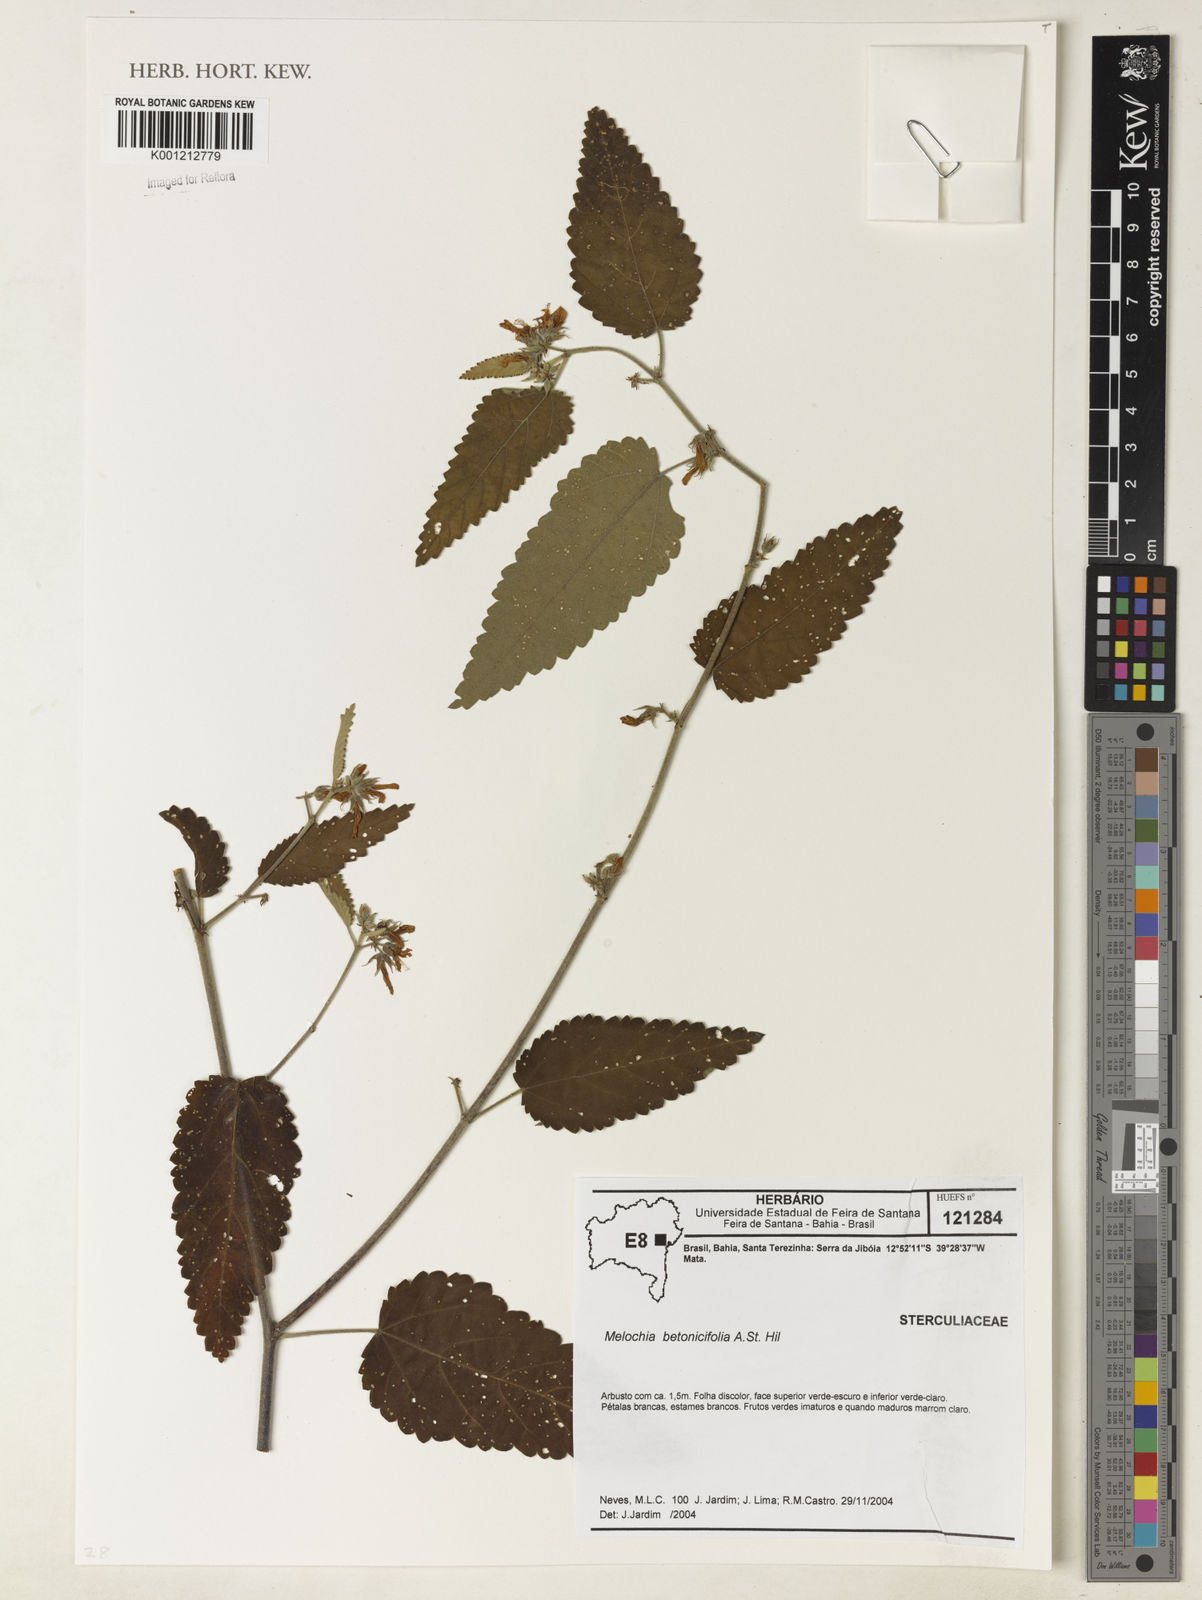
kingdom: Plantae
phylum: Tracheophyta
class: Magnoliopsida
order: Malvales
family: Malvaceae
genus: Melochia
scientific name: Melochia betonicifolia
